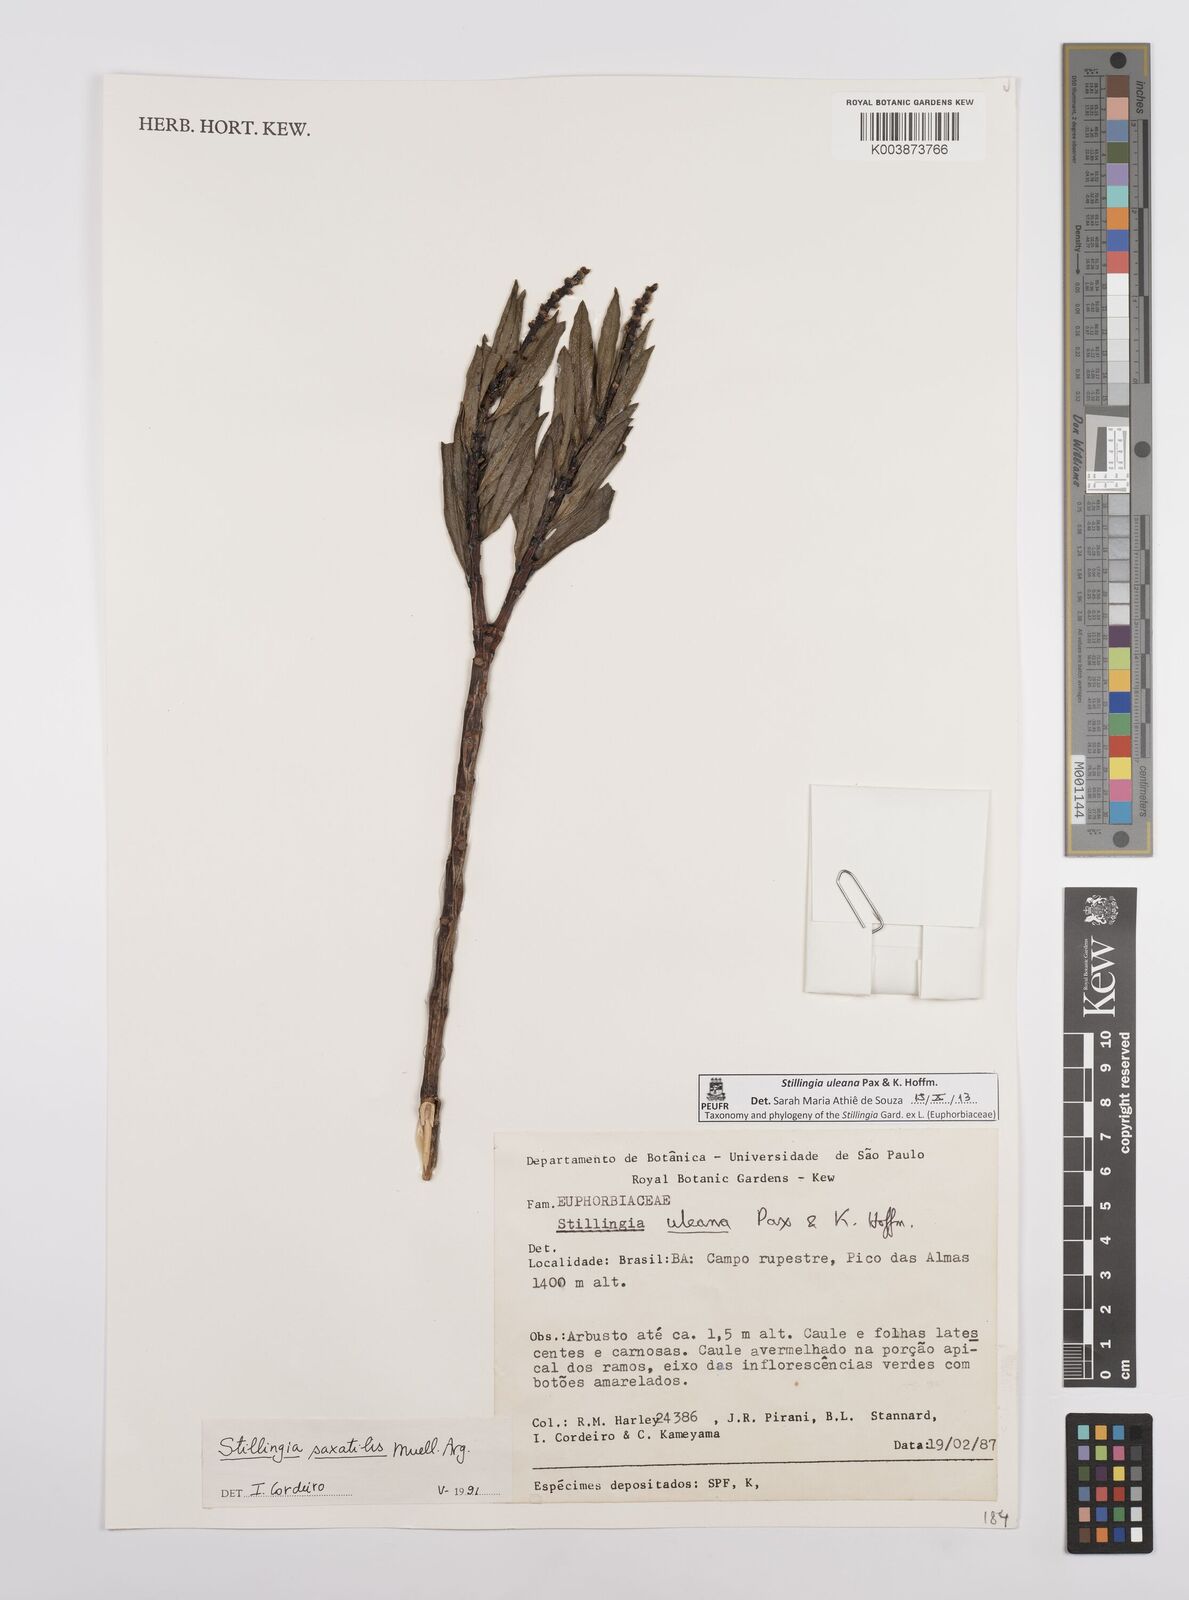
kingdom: Plantae
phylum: Tracheophyta
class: Magnoliopsida
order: Malpighiales
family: Euphorbiaceae
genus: Stillingia
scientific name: Stillingia uleana
